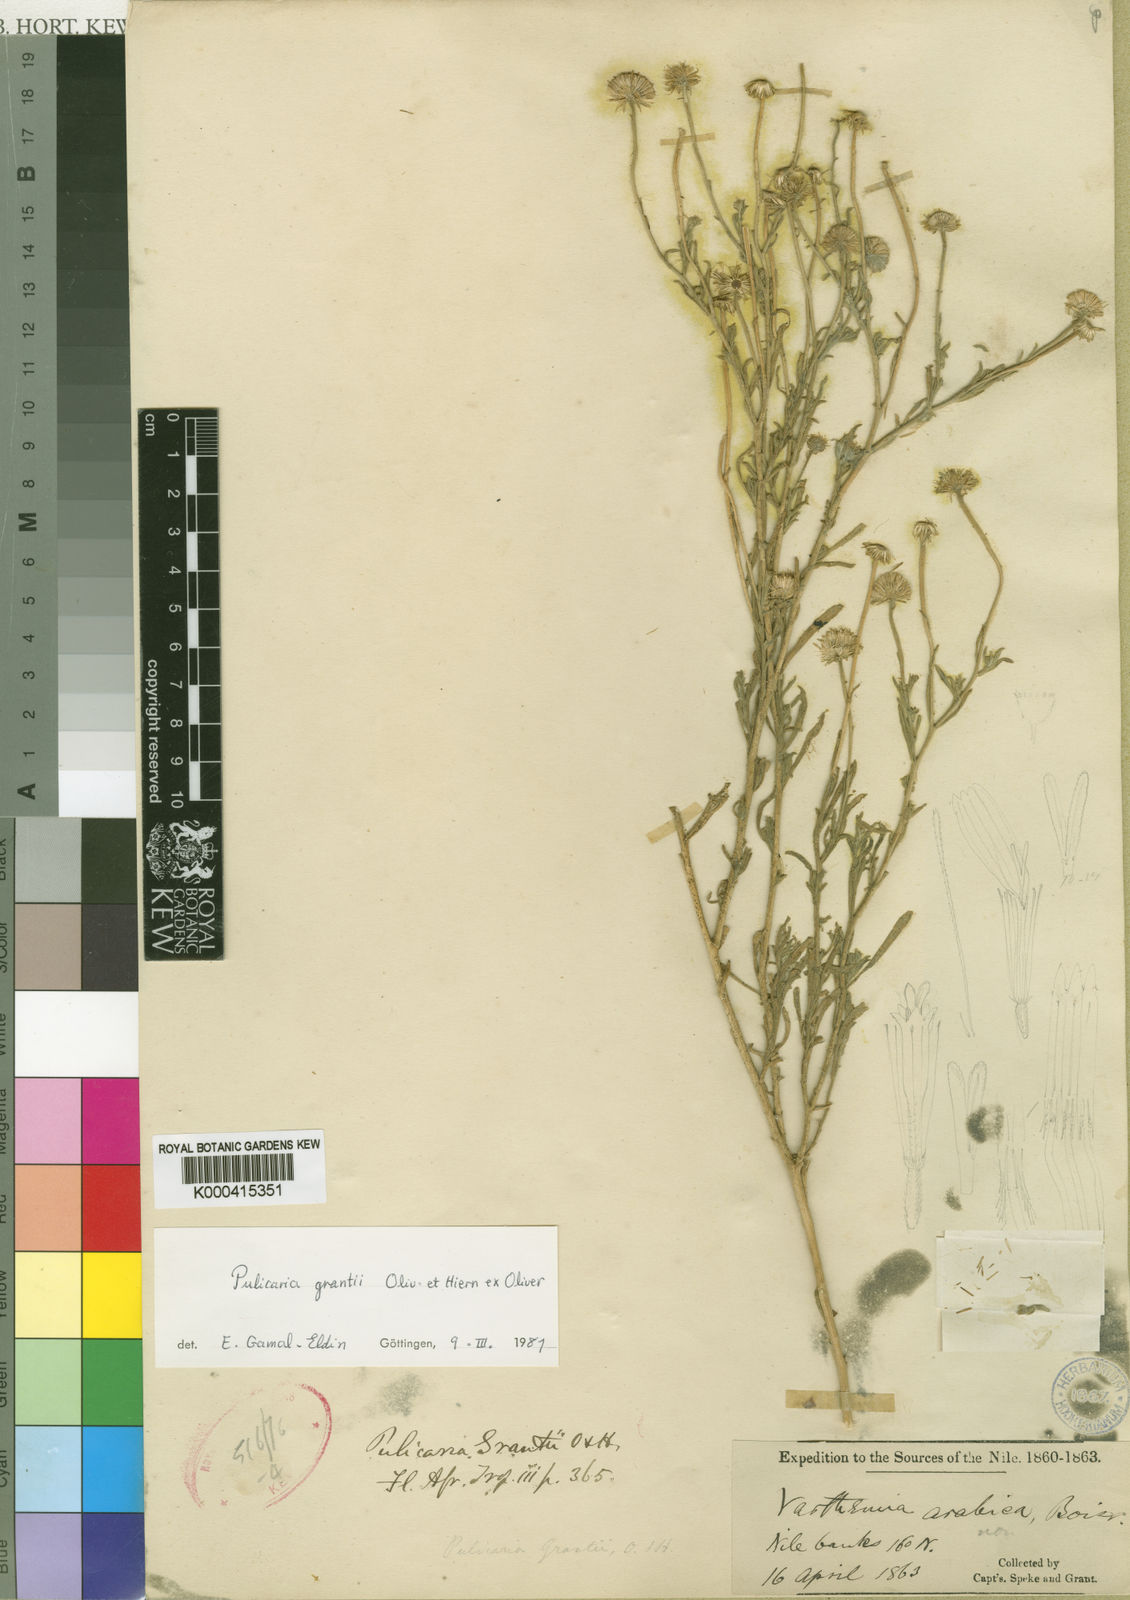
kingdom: Plantae
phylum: Tracheophyta
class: Magnoliopsida
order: Asterales
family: Asteraceae
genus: Pulicaria
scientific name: Pulicaria grantii
